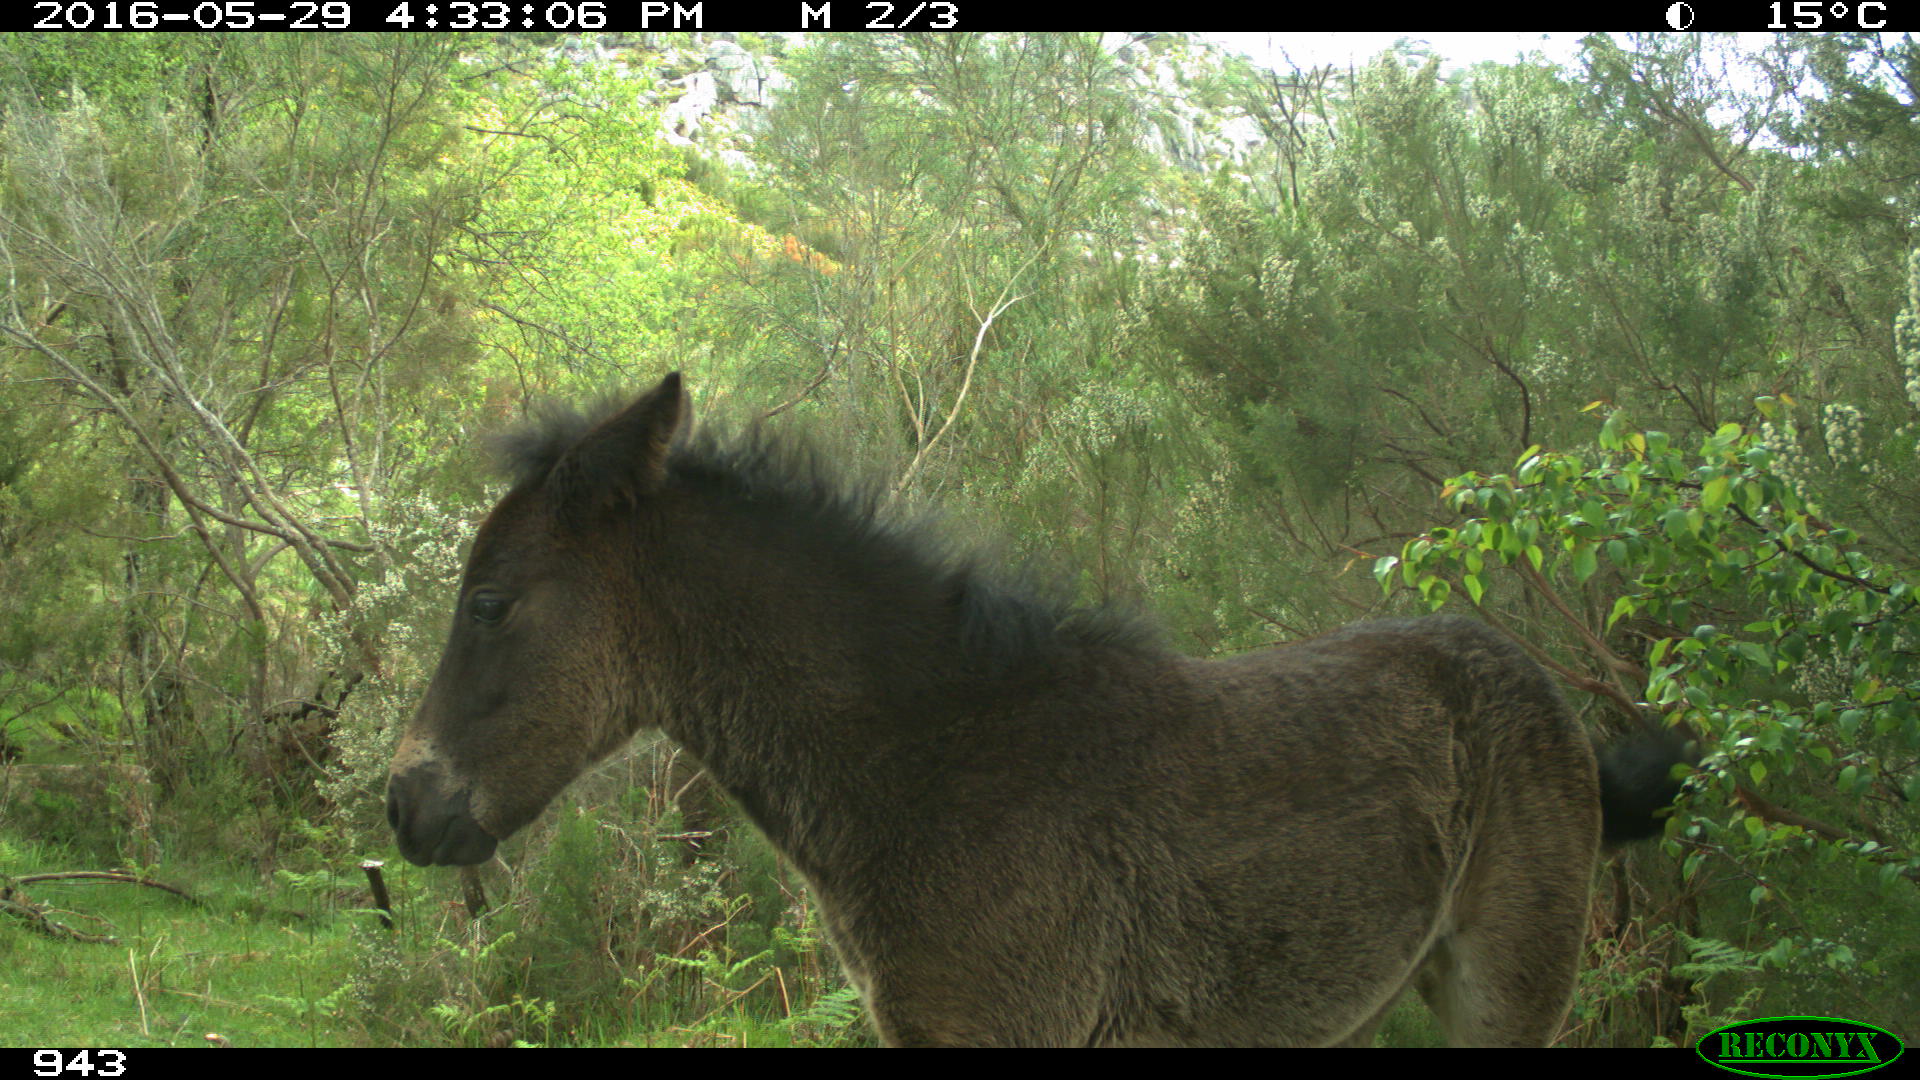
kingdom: Animalia
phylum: Chordata
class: Mammalia
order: Perissodactyla
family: Equidae
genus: Equus
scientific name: Equus caballus
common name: Horse
